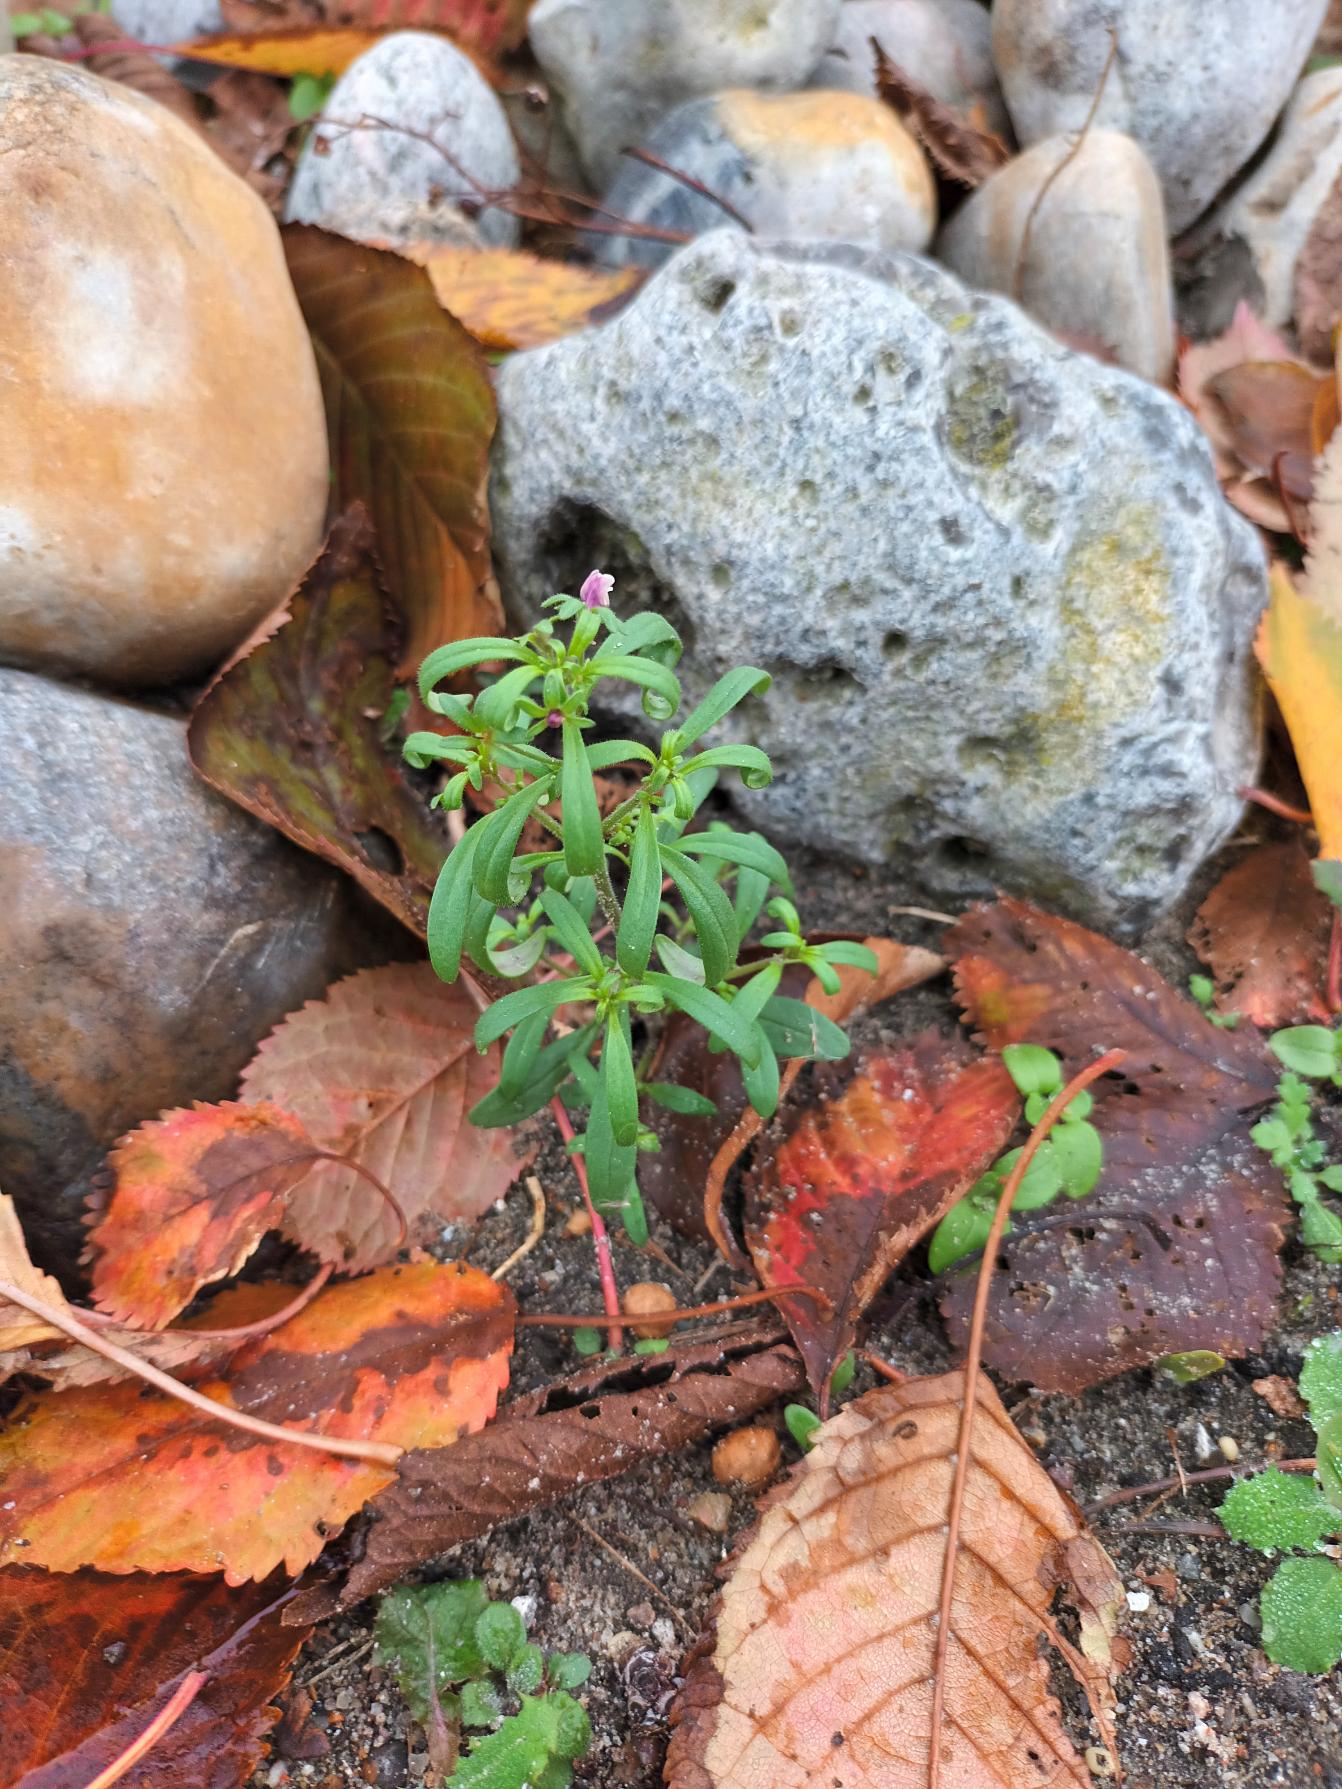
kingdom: Plantae
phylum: Tracheophyta
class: Magnoliopsida
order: Lamiales
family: Plantaginaceae
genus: Chaenorhinum
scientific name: Chaenorhinum minus
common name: Liden torskemund
